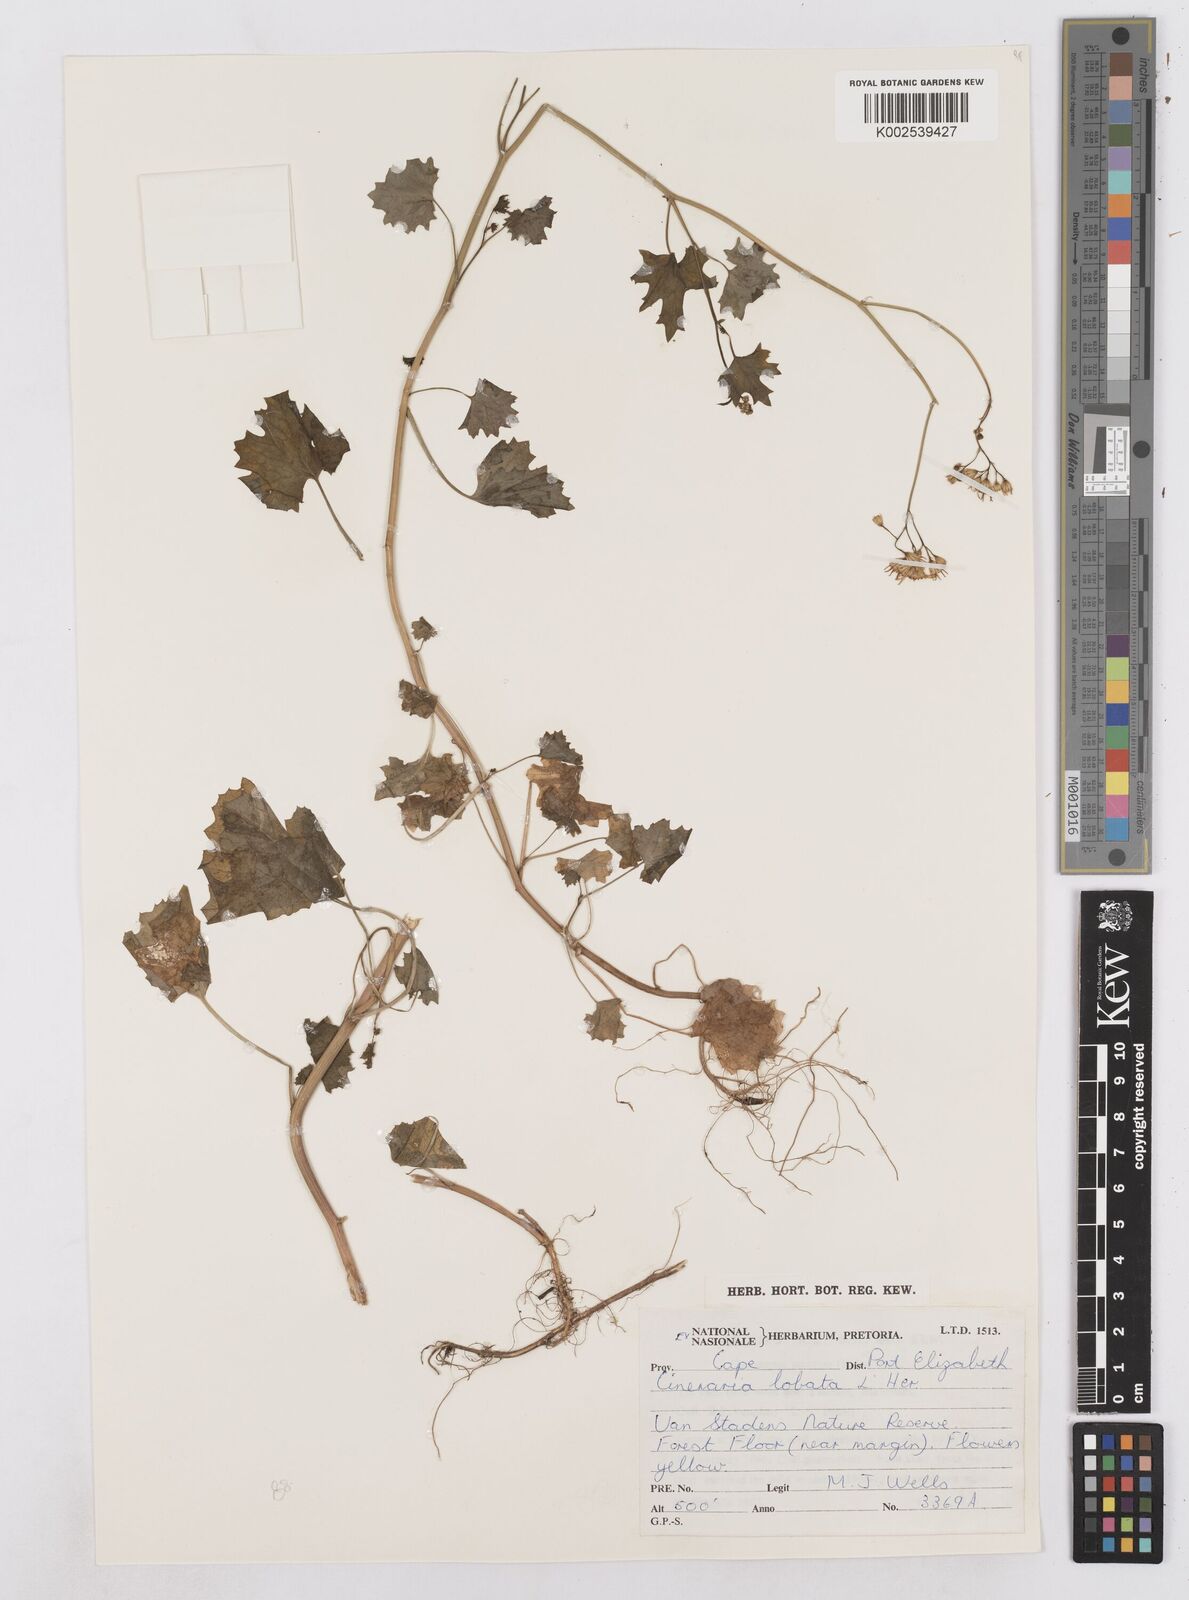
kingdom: Plantae
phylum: Tracheophyta
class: Magnoliopsida
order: Asterales
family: Asteraceae
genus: Cineraria
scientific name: Cineraria
